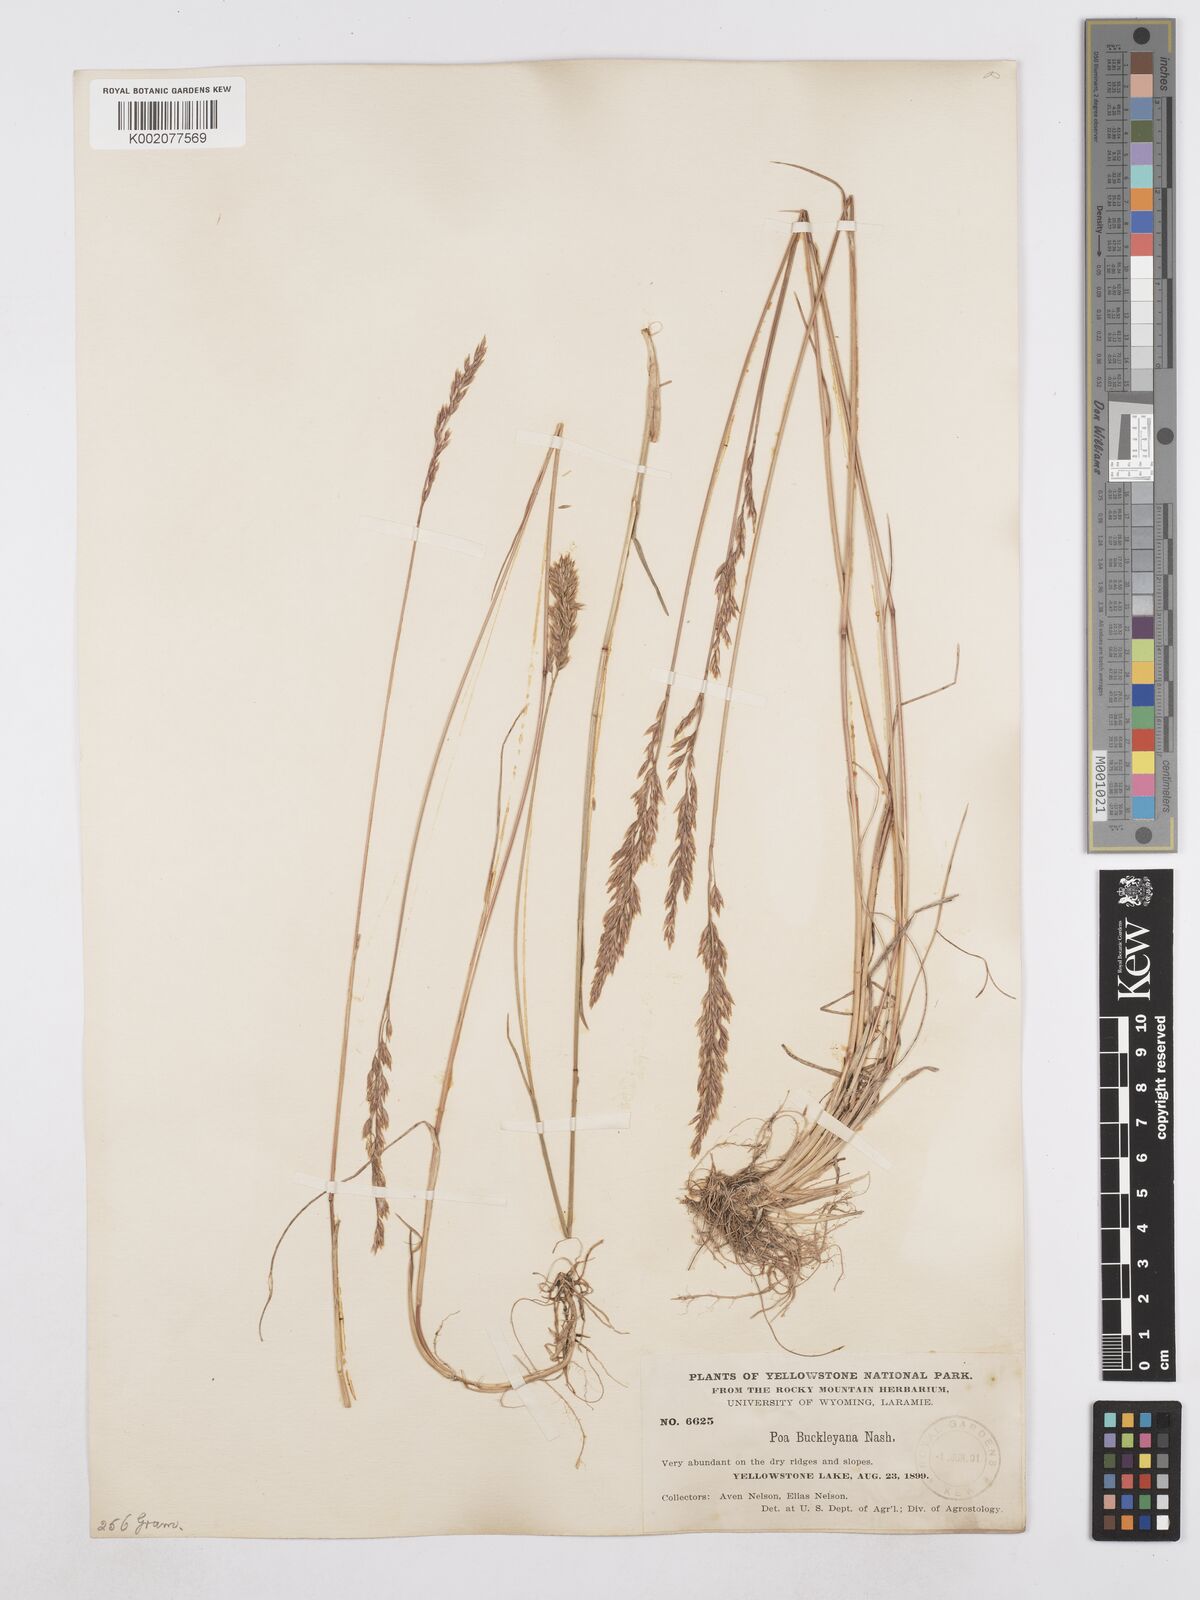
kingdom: Plantae
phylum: Tracheophyta
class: Liliopsida
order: Poales
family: Poaceae
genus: Poa
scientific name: Poa secunda
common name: Sandberg bluegrass
